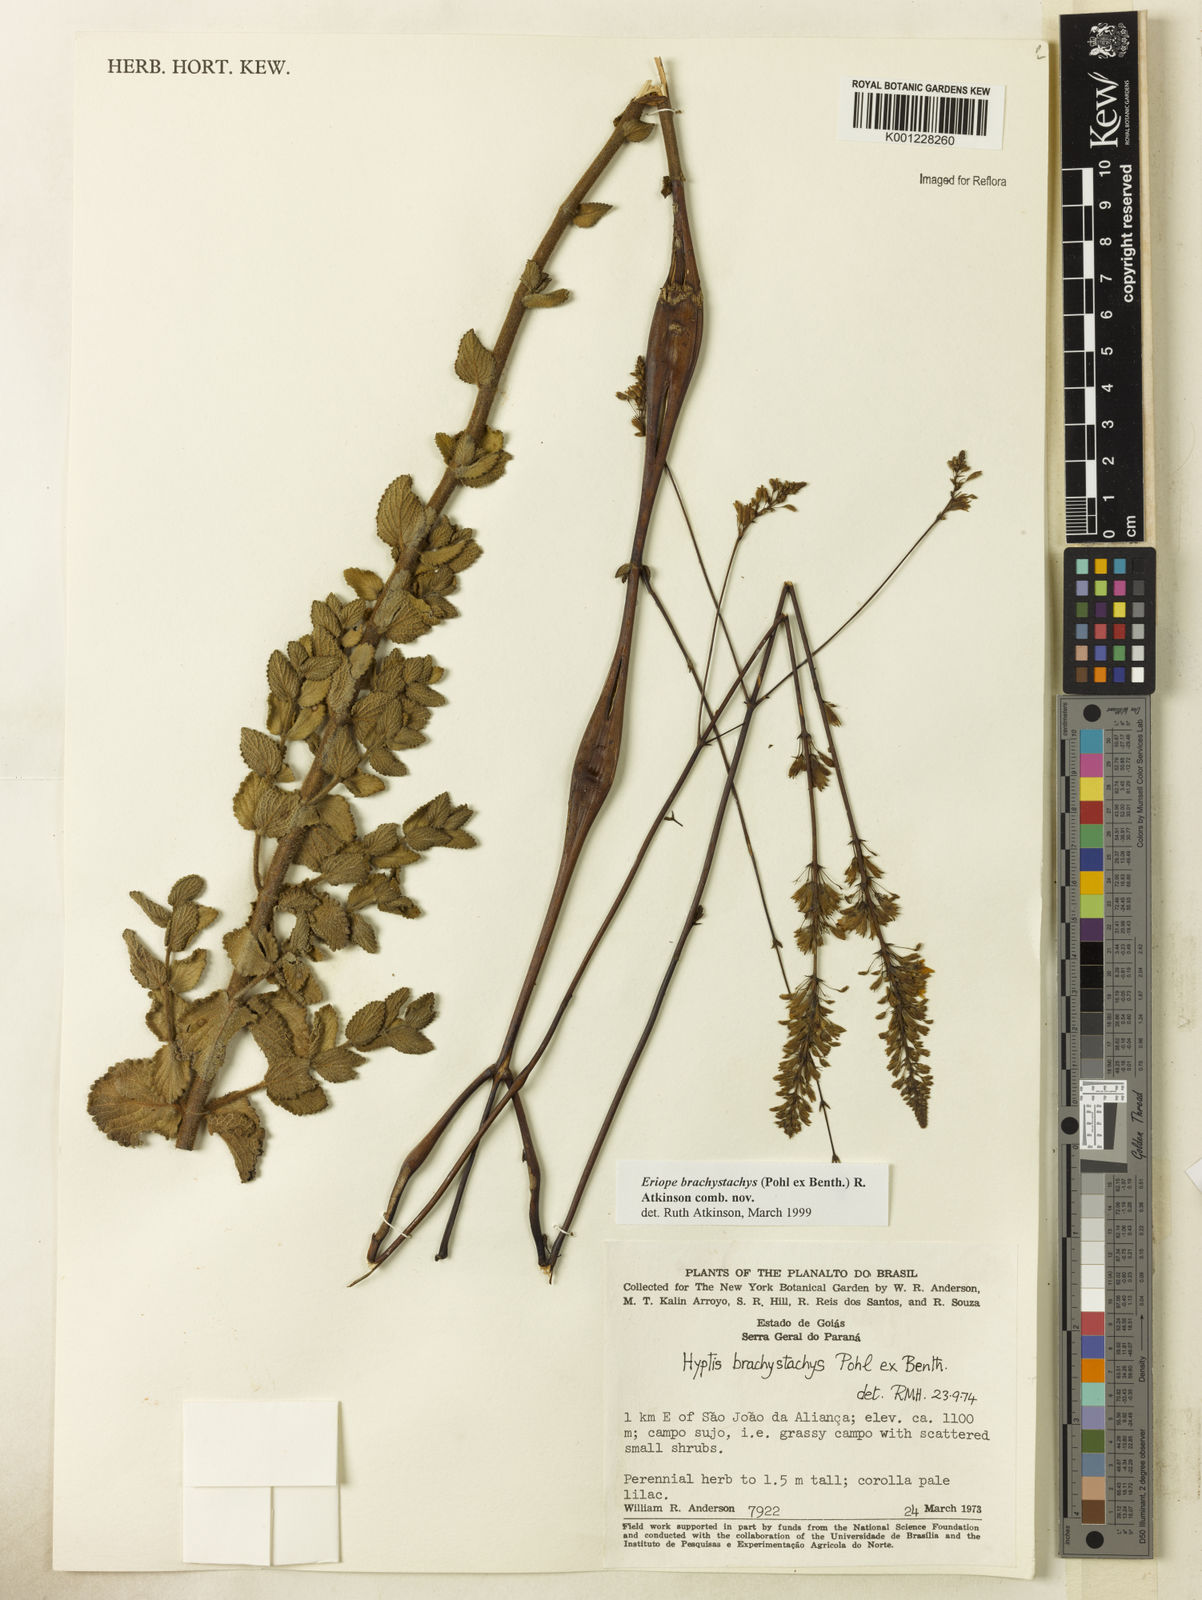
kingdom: Plantae
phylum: Tracheophyta
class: Magnoliopsida
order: Lamiales
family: Lamiaceae
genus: Hypenia
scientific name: Hypenia brachystachys
